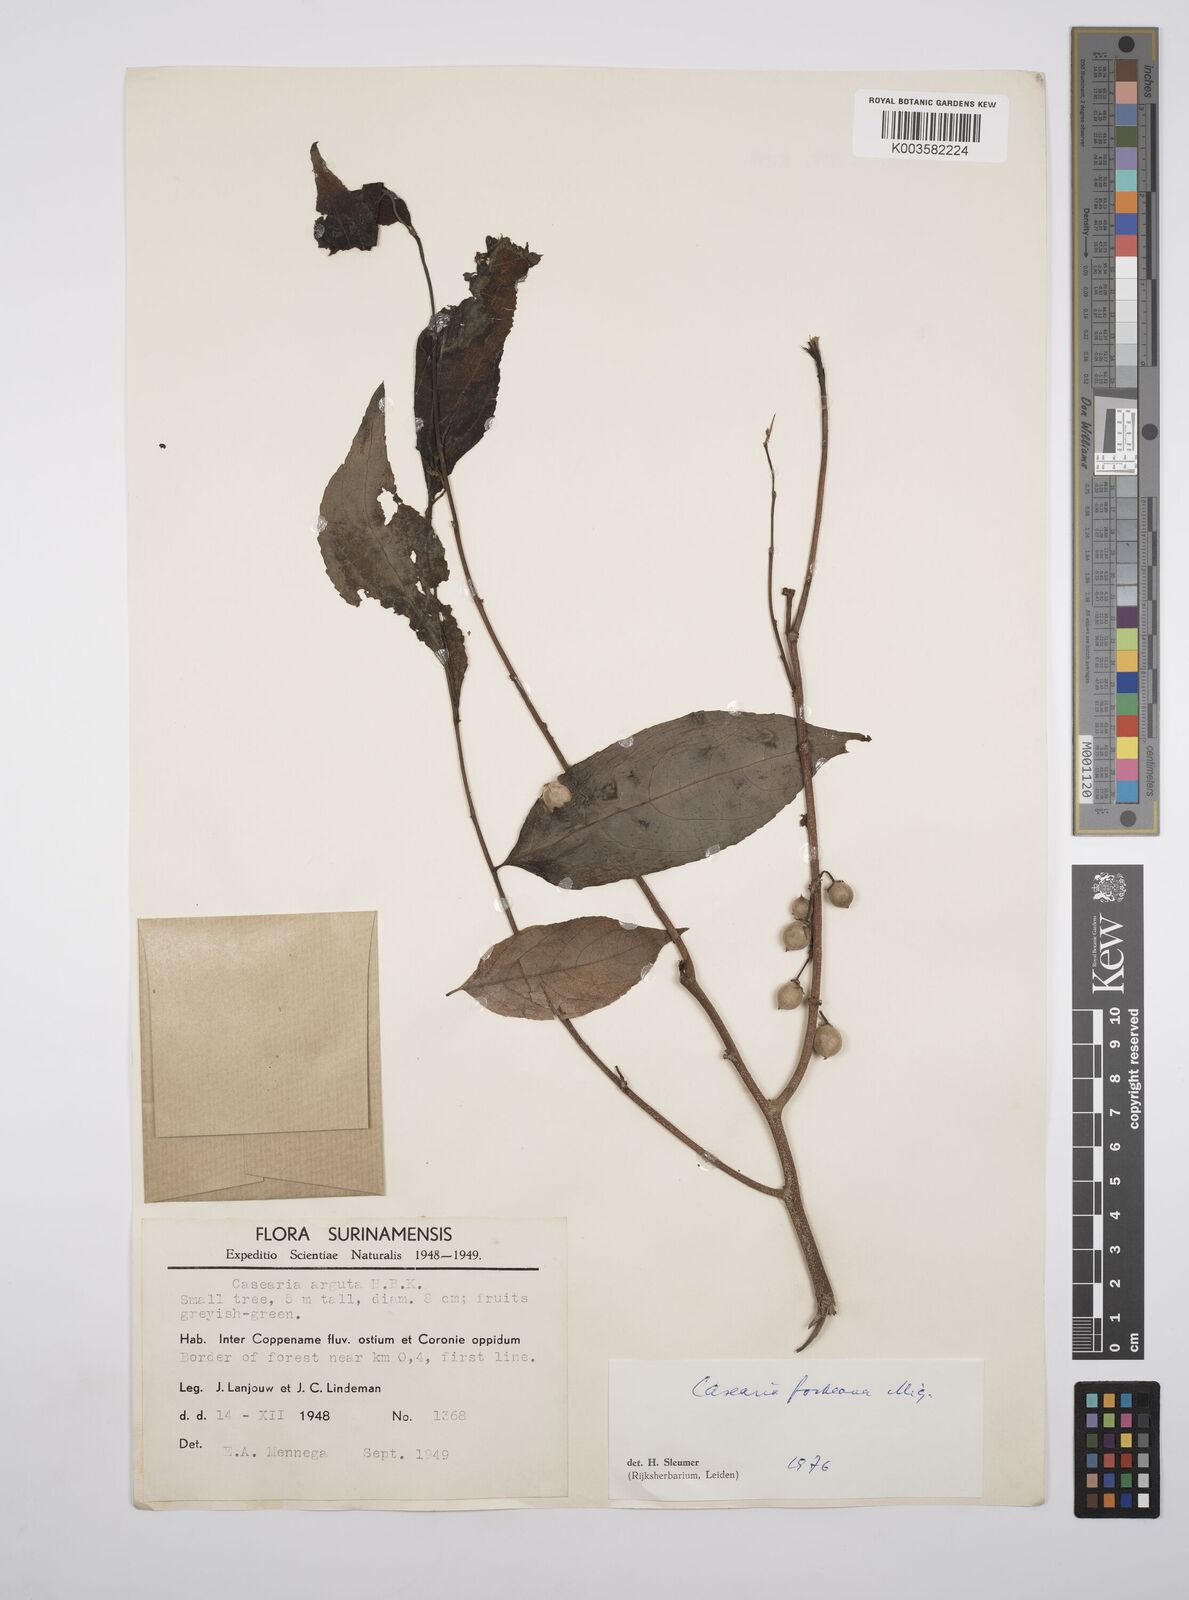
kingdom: Plantae
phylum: Tracheophyta
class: Magnoliopsida
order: Malpighiales
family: Salicaceae
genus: Casearia
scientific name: Casearia mariquitensis
